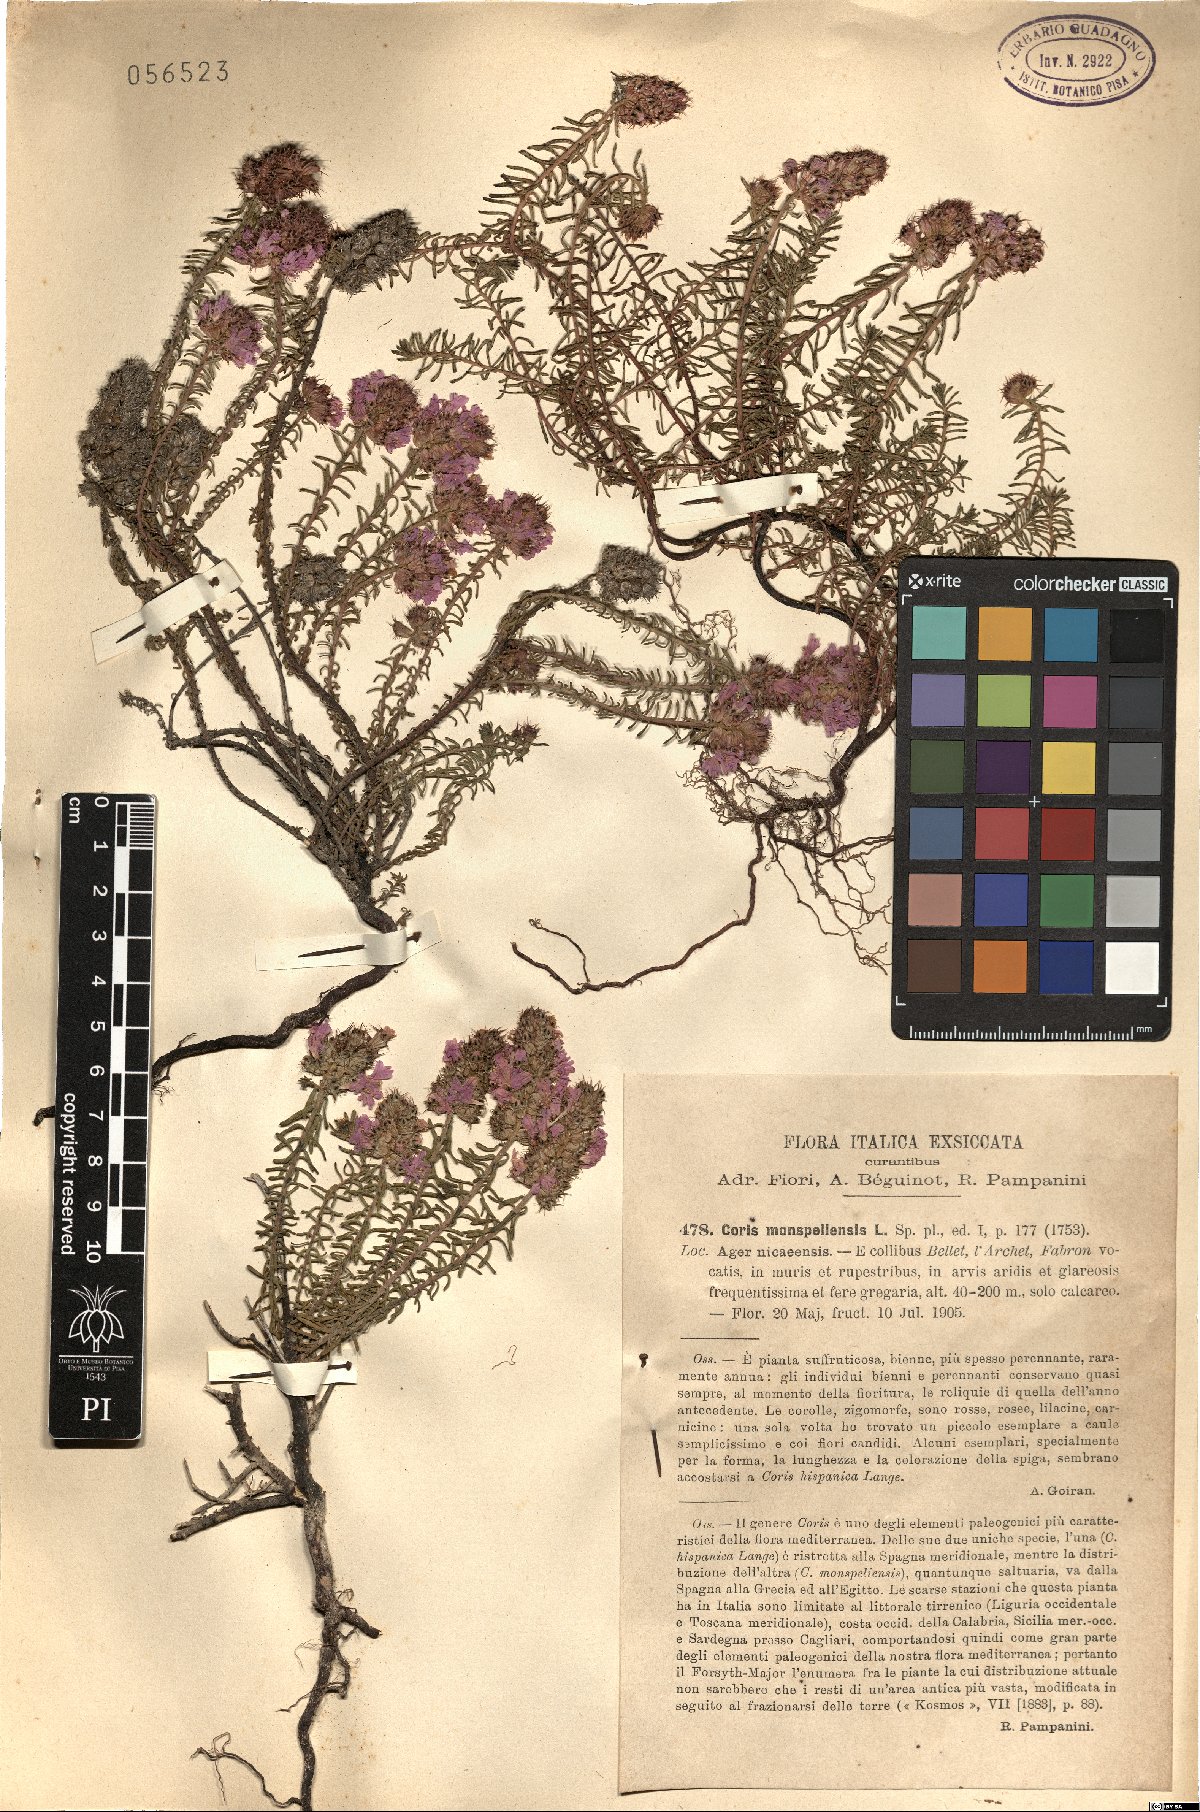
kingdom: Plantae
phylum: Tracheophyta
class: Magnoliopsida
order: Ericales
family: Primulaceae
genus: Coris
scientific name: Coris monspeliensis
